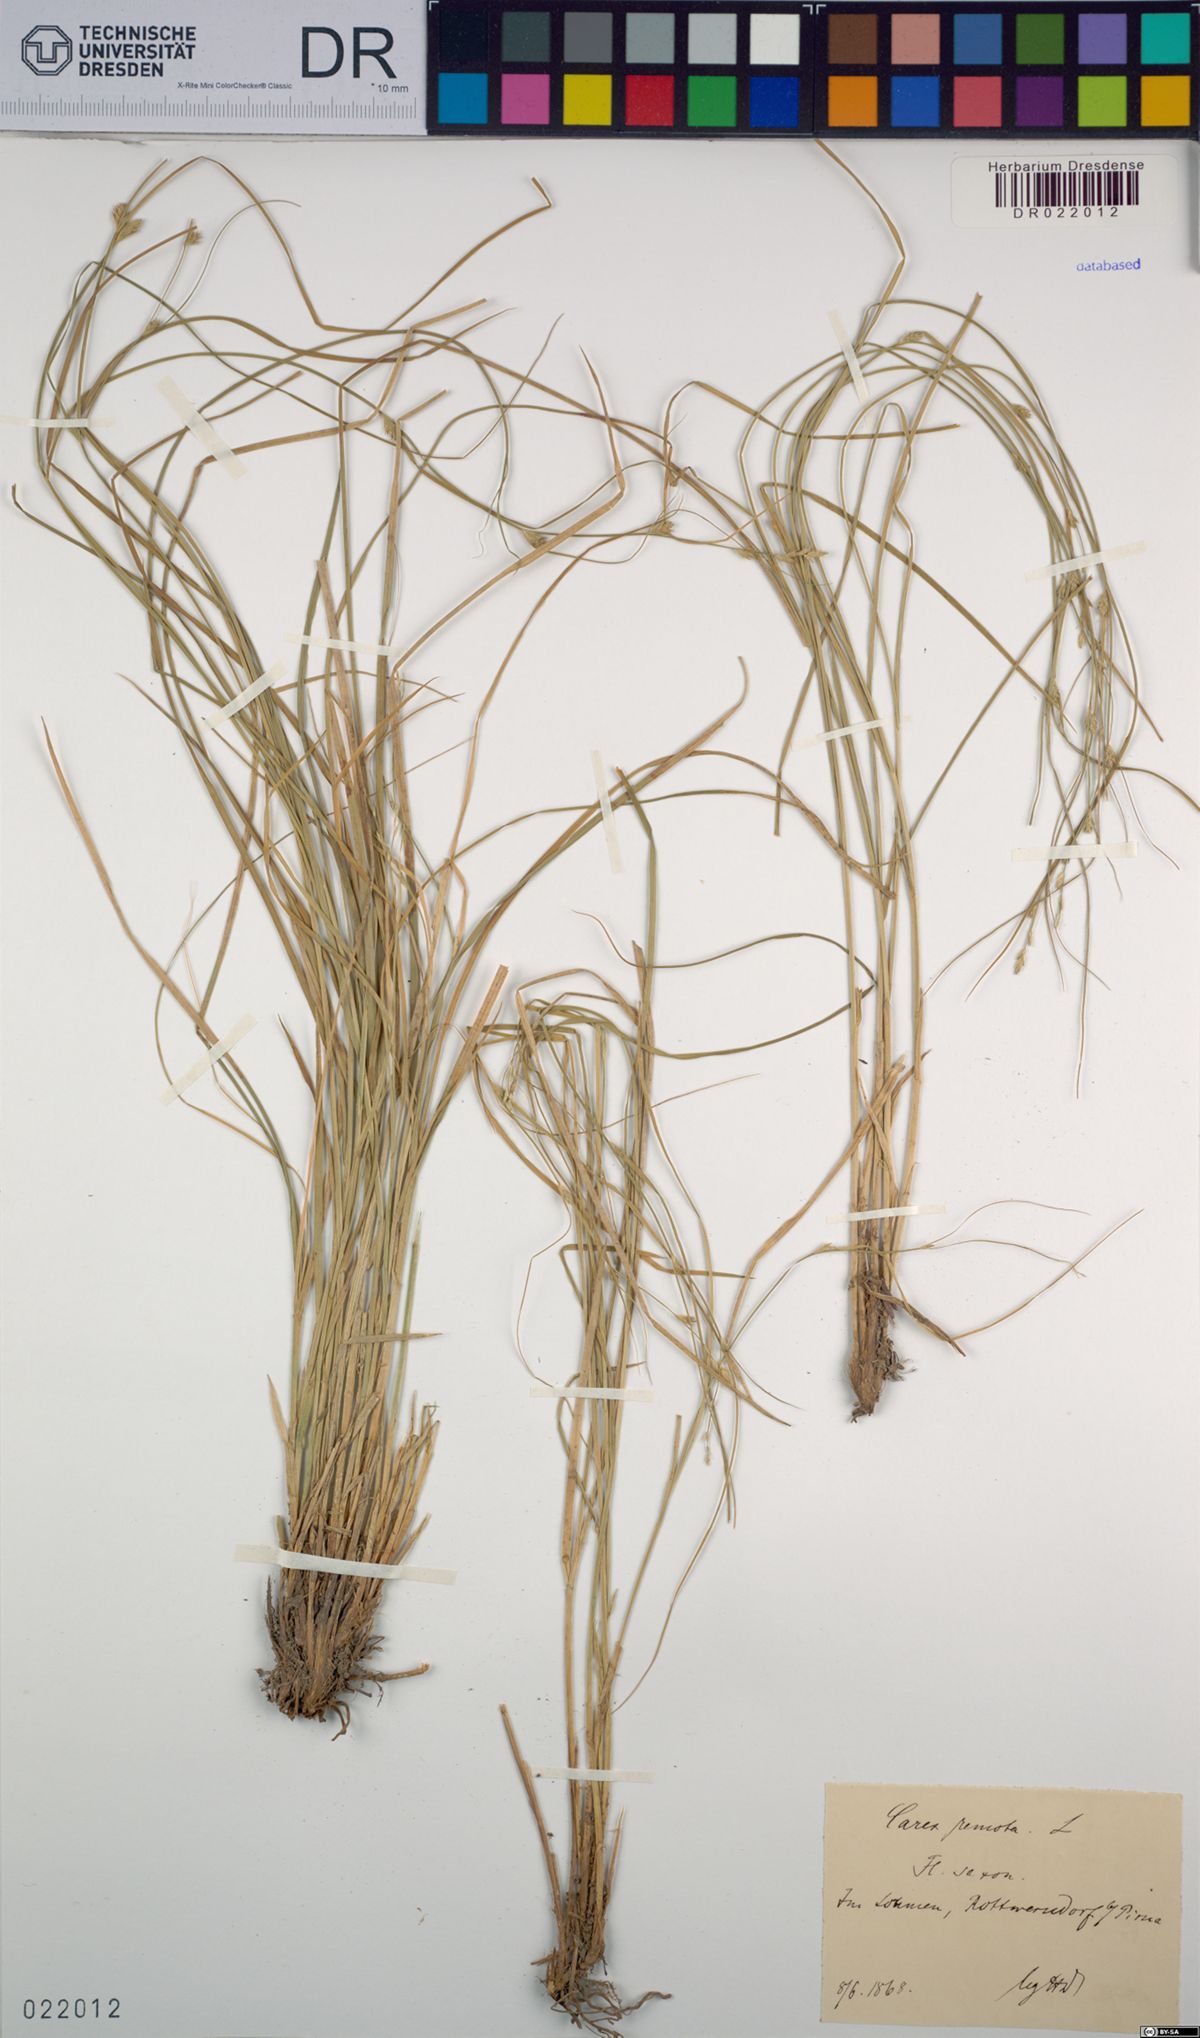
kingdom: Plantae
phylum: Tracheophyta
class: Liliopsida
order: Poales
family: Cyperaceae
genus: Carex
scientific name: Carex remota
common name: Remote sedge
